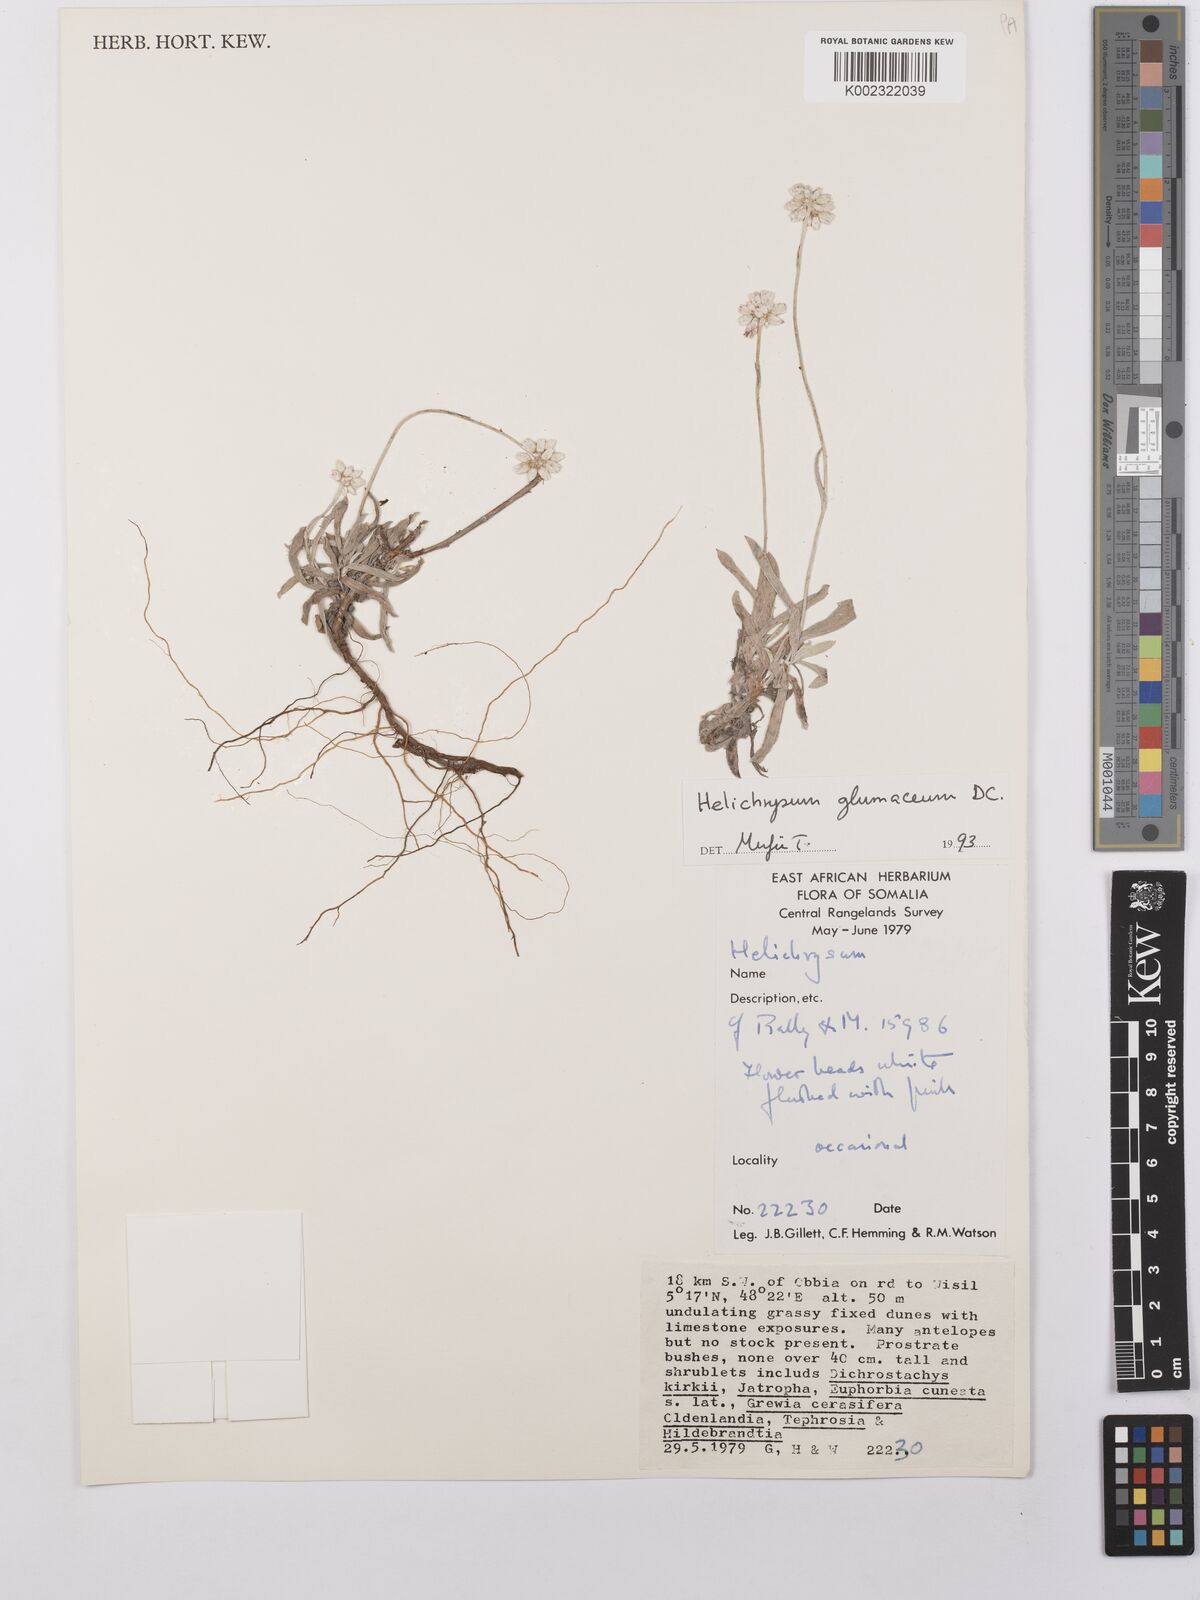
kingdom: Plantae
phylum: Tracheophyta
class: Magnoliopsida
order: Asterales
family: Asteraceae
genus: Helichrysum
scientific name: Helichrysum
